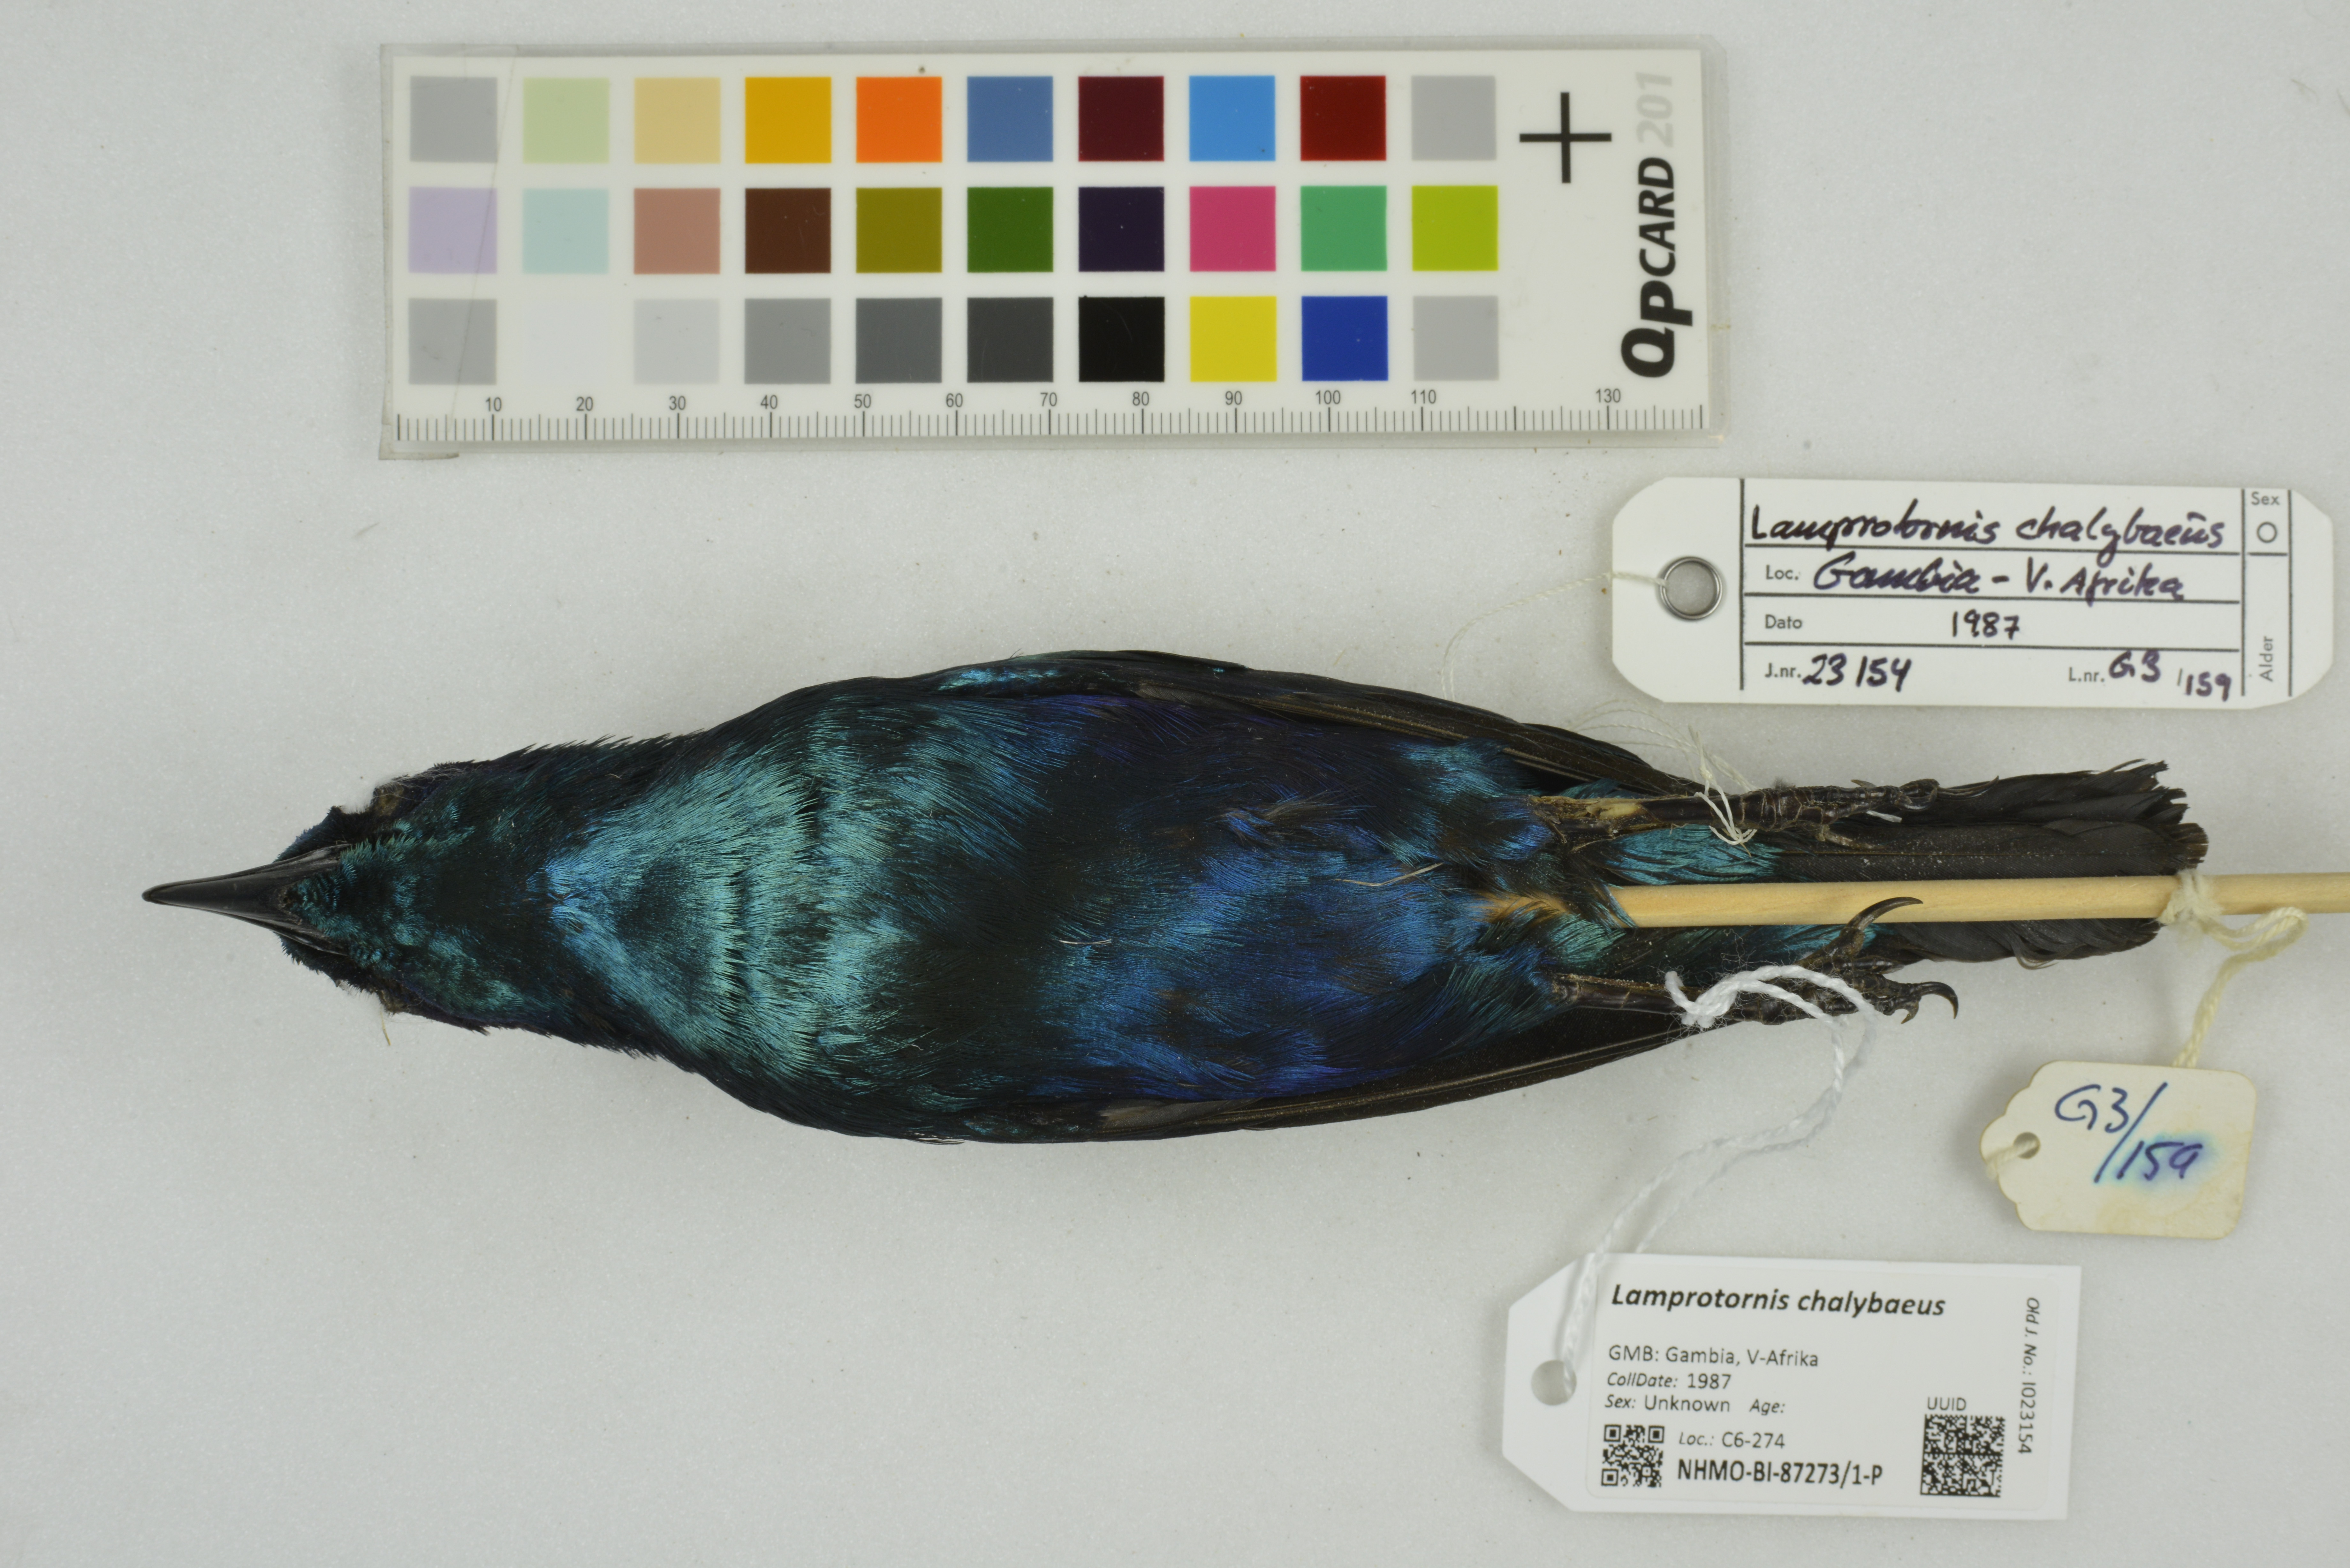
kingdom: Animalia
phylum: Chordata
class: Aves
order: Passeriformes
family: Sturnidae
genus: Lamprotornis
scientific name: Lamprotornis chalybaeus
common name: Greater blue-eared starling
